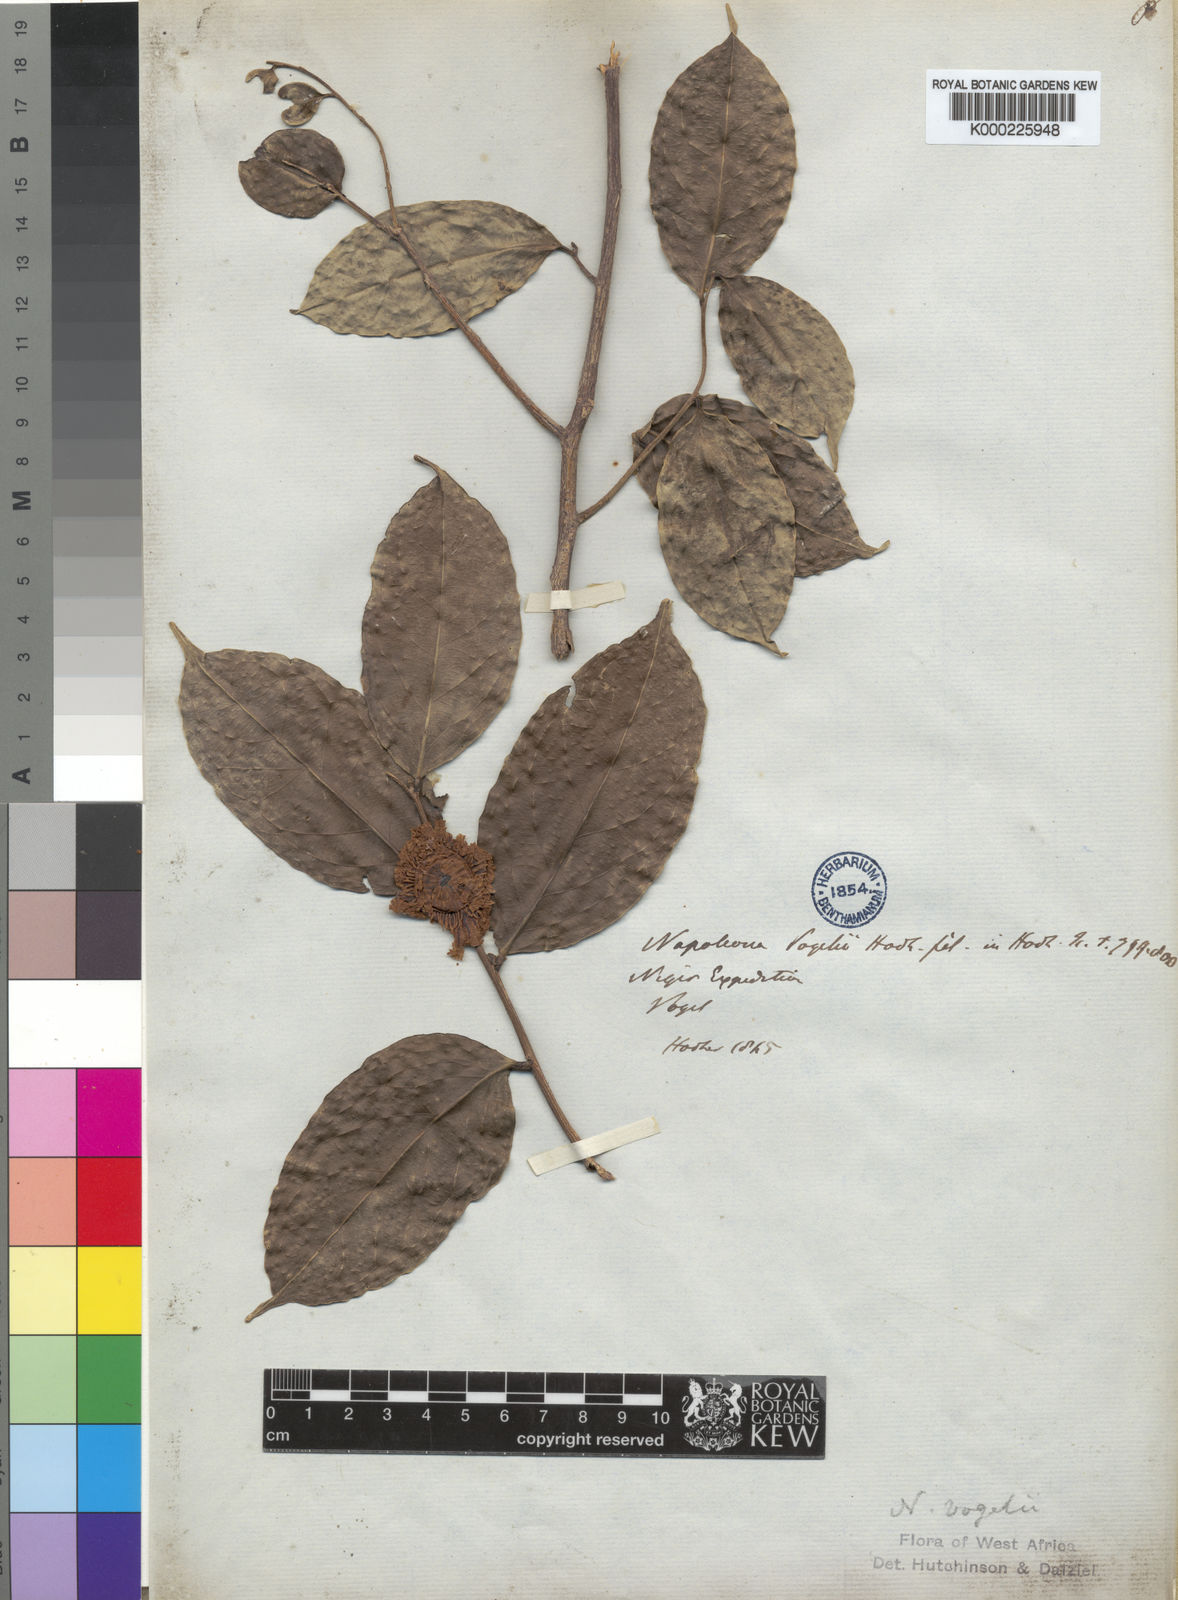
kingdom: Plantae
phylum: Tracheophyta
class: Magnoliopsida
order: Ericales
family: Lecythidaceae
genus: Napoleonaea
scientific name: Napoleonaea vogelii
